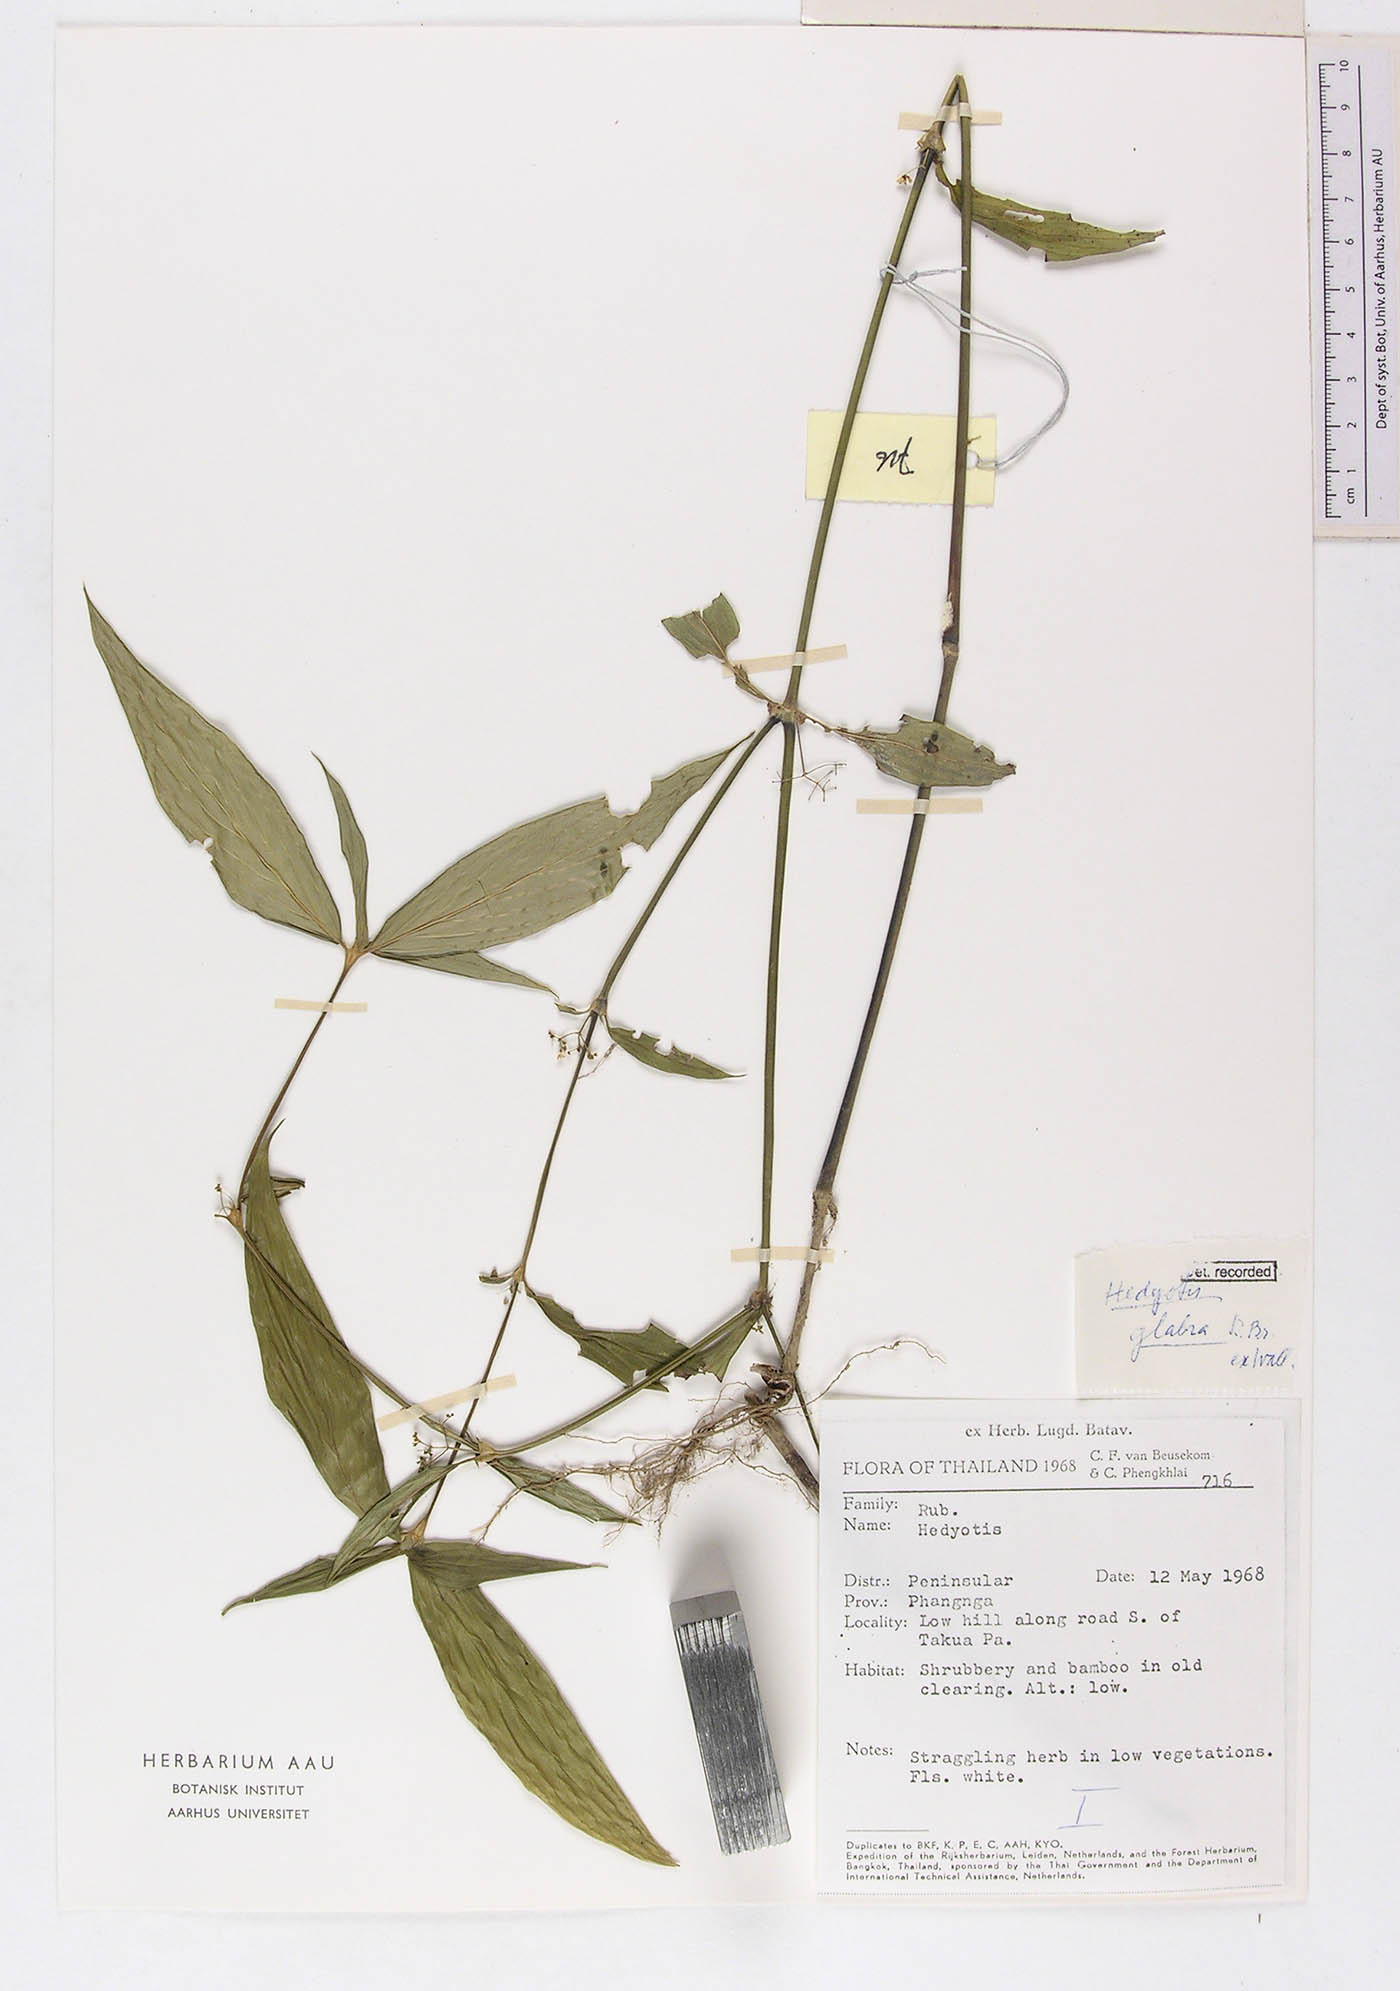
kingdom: Plantae
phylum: Tracheophyta
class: Magnoliopsida
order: Gentianales
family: Rubiaceae
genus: Exallage
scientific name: Exallage insularis
